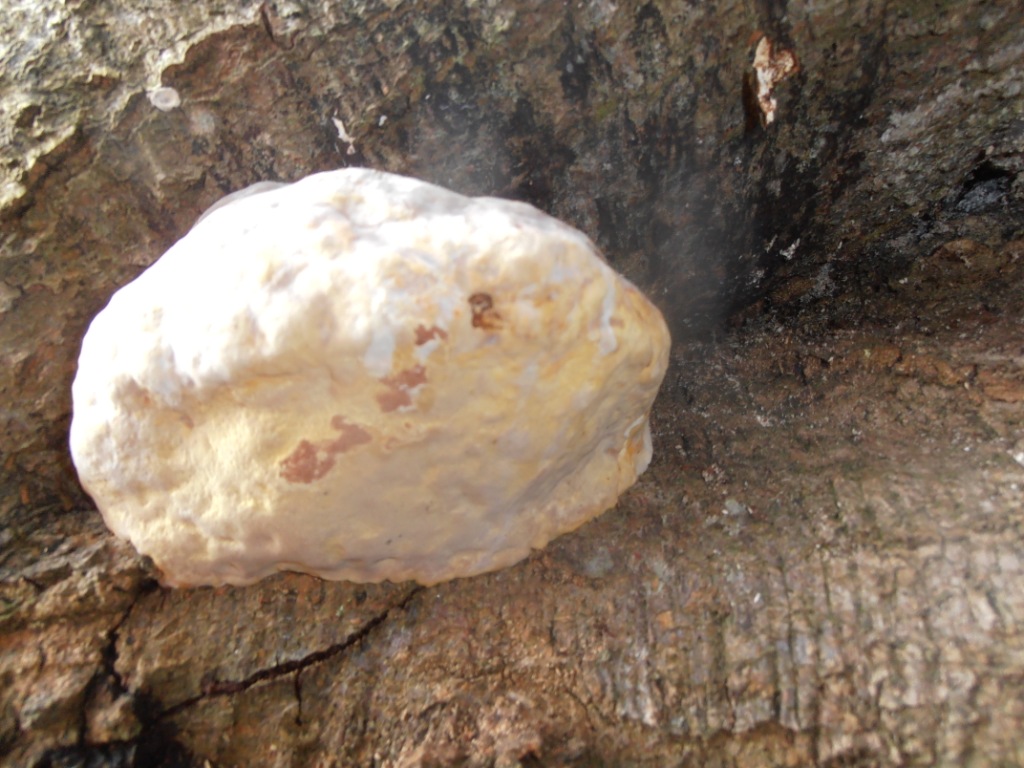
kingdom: Fungi
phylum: Basidiomycota
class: Agaricomycetes
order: Polyporales
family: Polyporaceae
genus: Ganoderma
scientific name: Ganoderma pfeifferi
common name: kobberrød lakporesvamp
